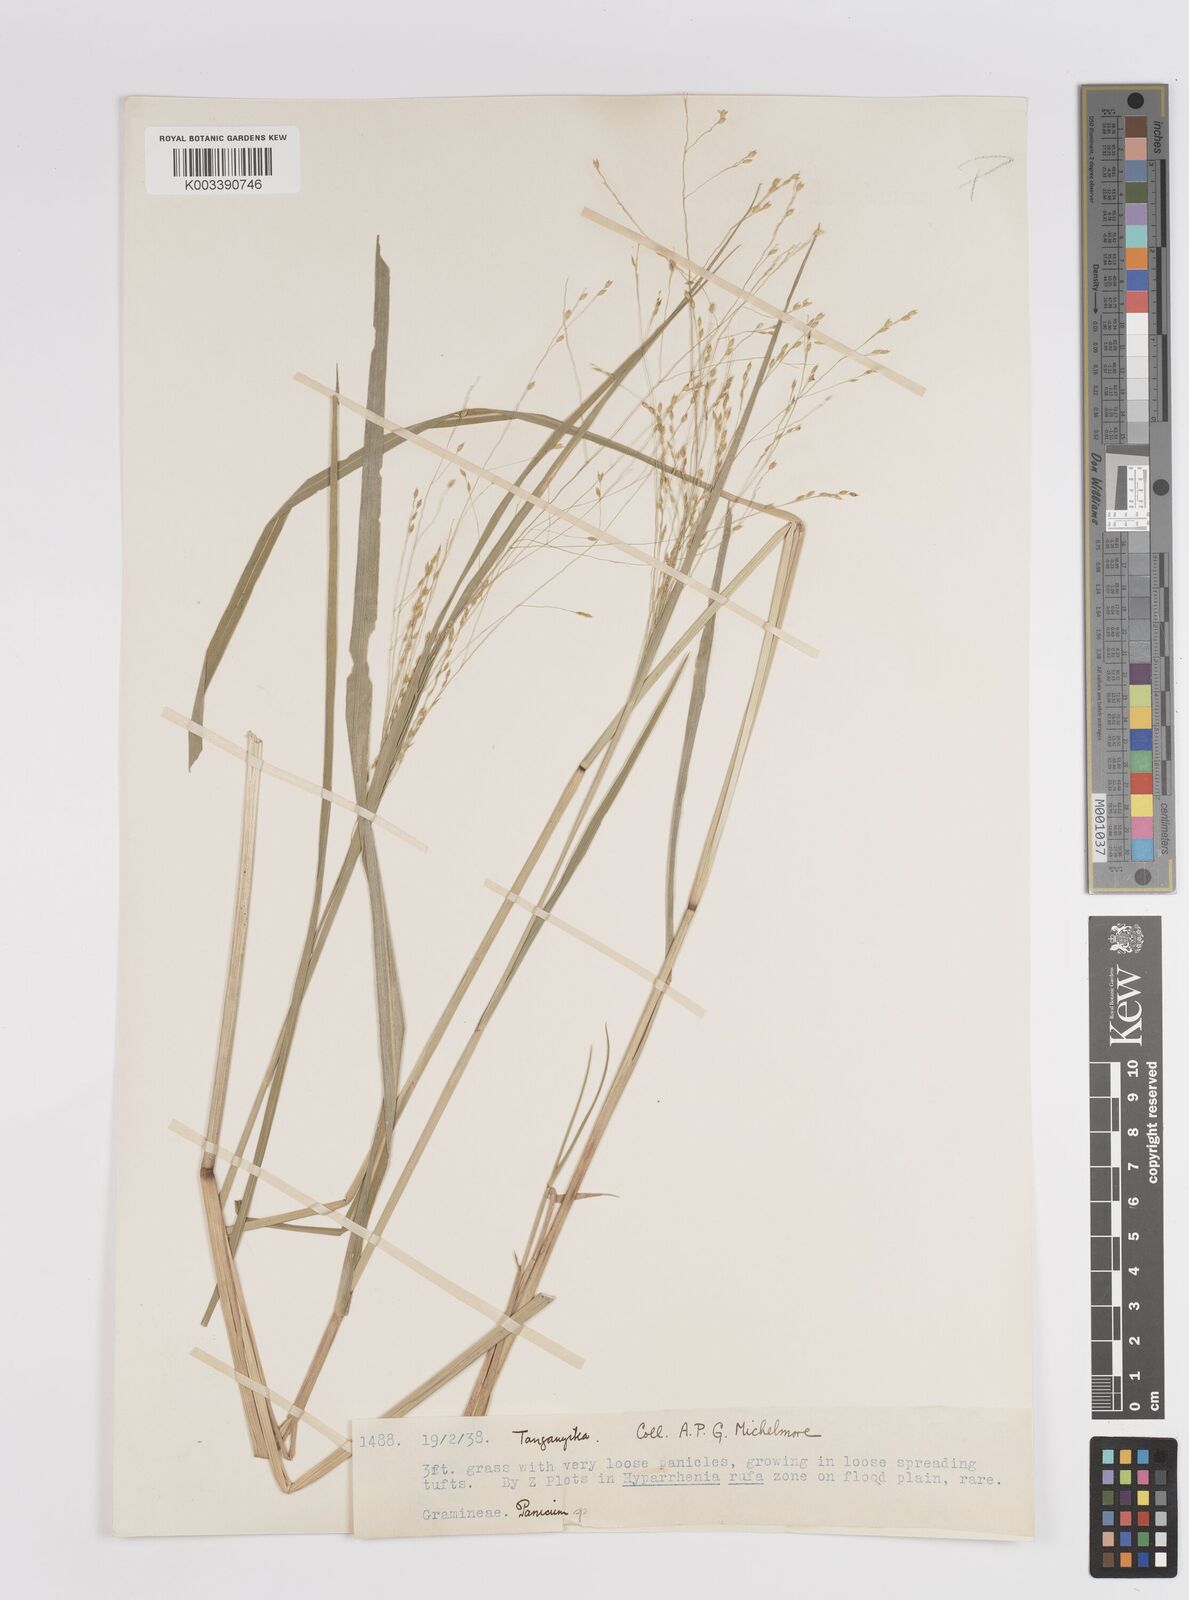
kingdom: Plantae
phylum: Tracheophyta
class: Liliopsida
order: Poales
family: Poaceae
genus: Panicum
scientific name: Panicum porphyrrhizos
